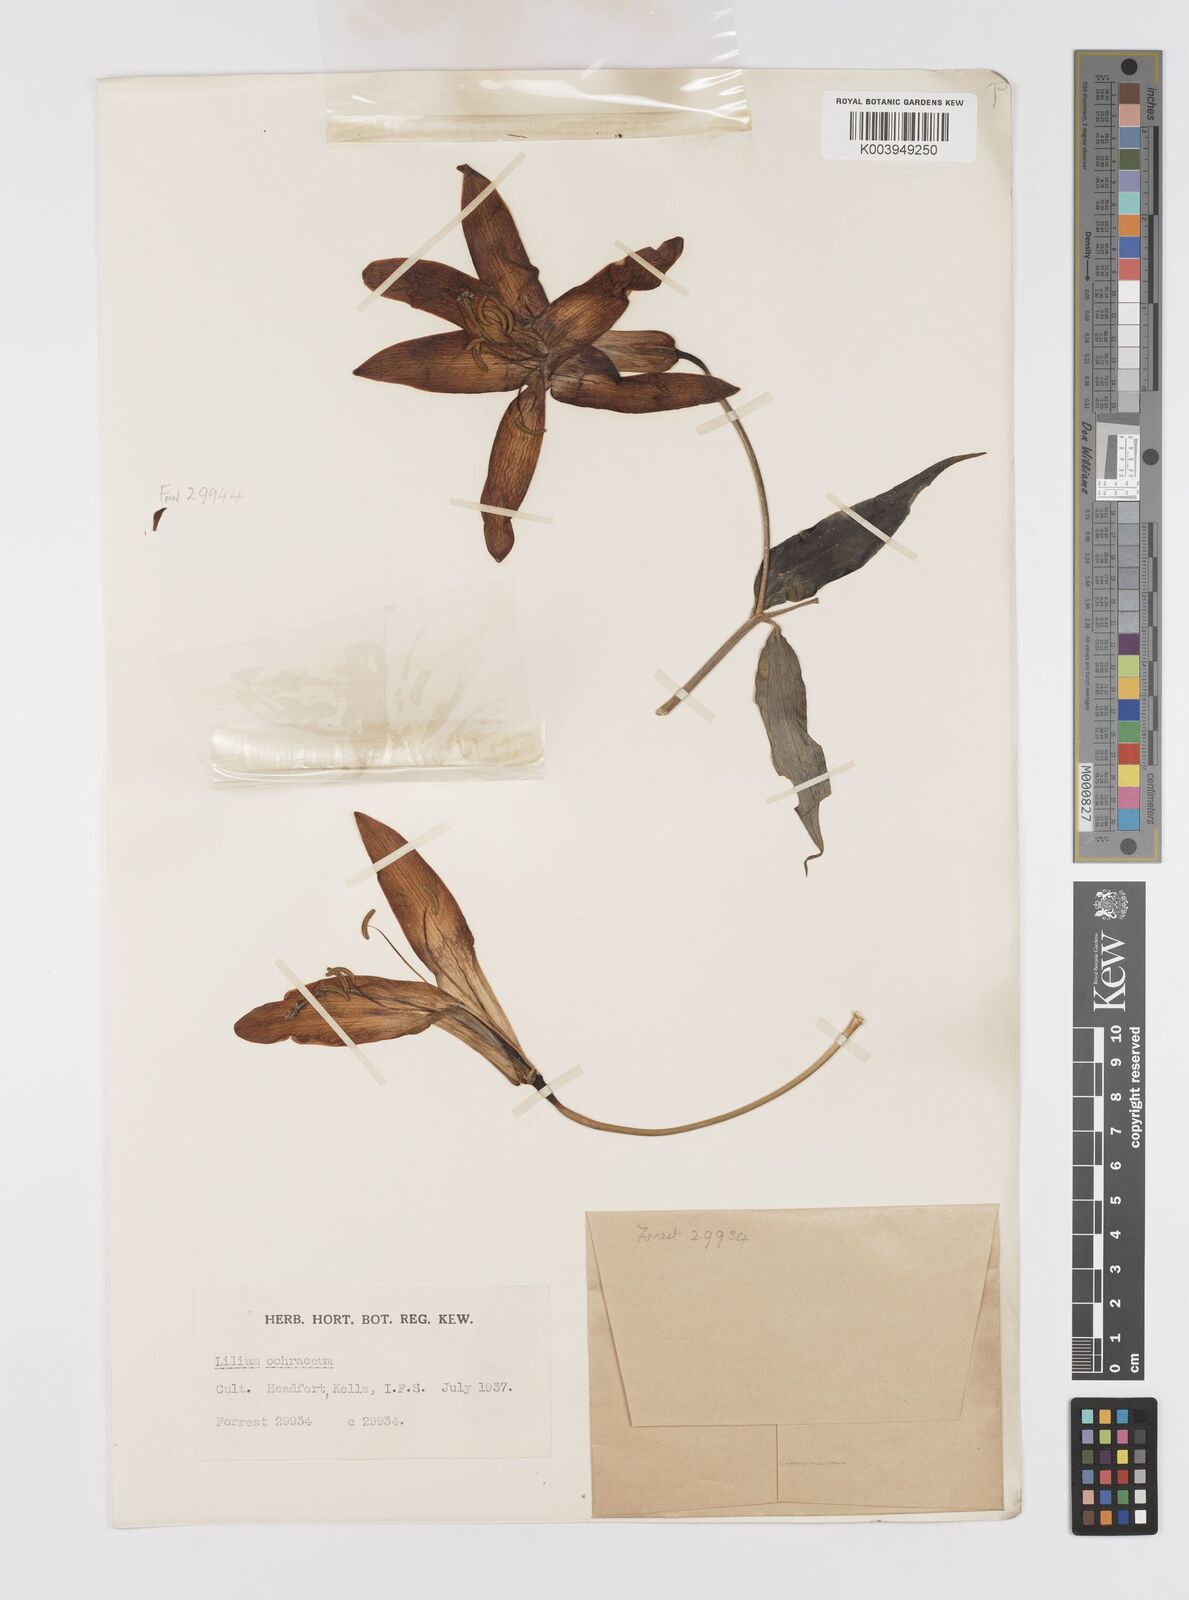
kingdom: Plantae
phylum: Tracheophyta
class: Liliopsida
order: Liliales
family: Liliaceae
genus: Lilium
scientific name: Lilium primulinum
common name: Ochre lily
